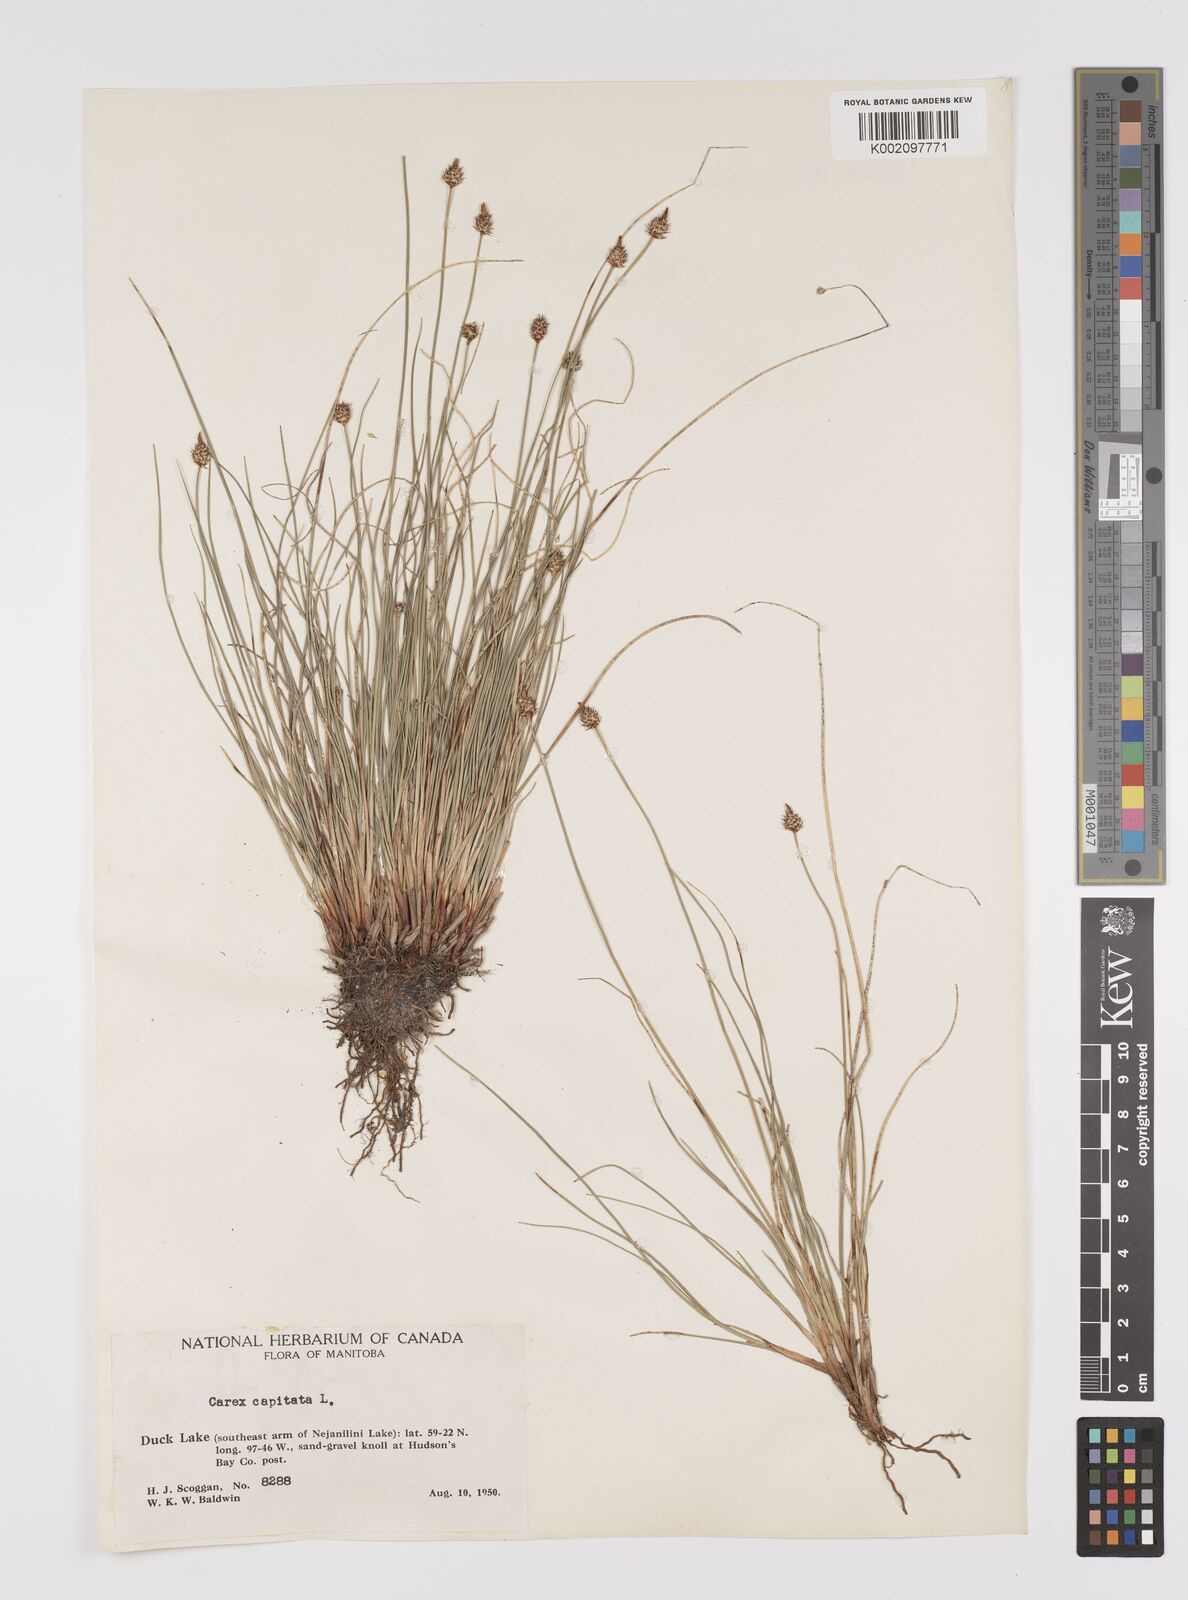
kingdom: Plantae
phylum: Tracheophyta
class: Liliopsida
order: Poales
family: Cyperaceae
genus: Carex
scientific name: Carex capitata
